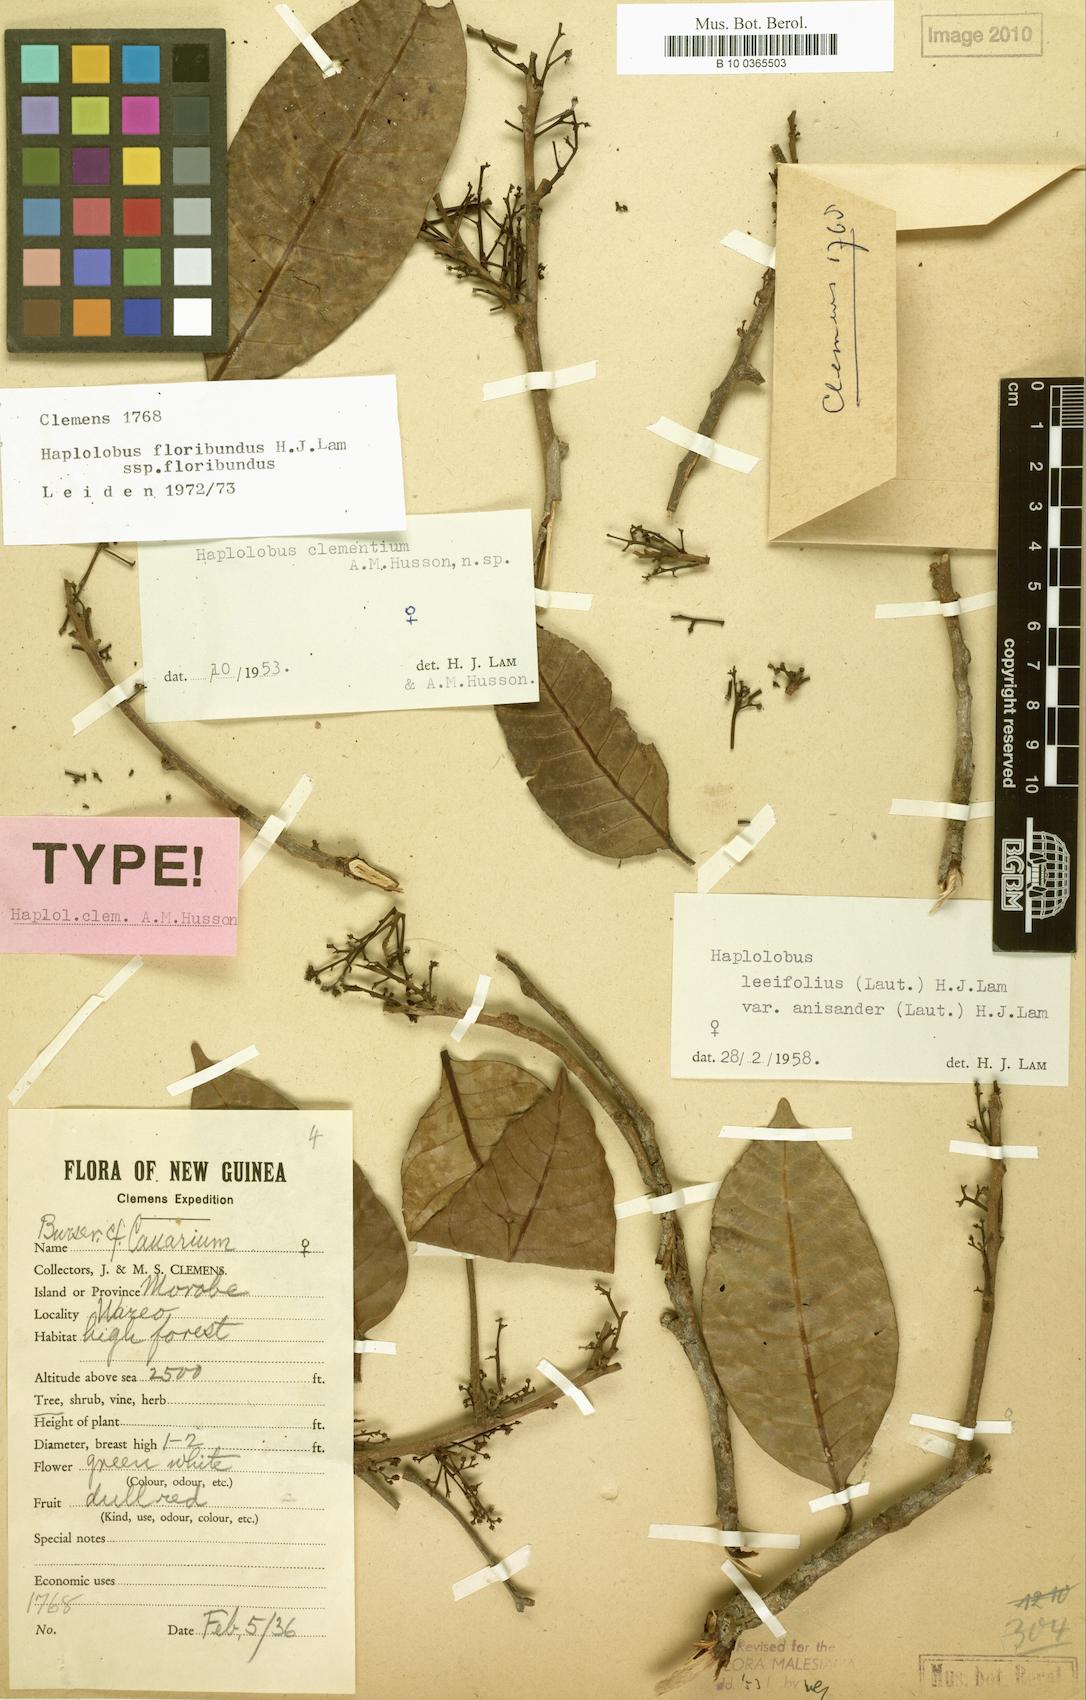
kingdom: Plantae
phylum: Tracheophyta
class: Magnoliopsida
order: Sapindales
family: Burseraceae
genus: Haplolobus
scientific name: Haplolobus floribundus
